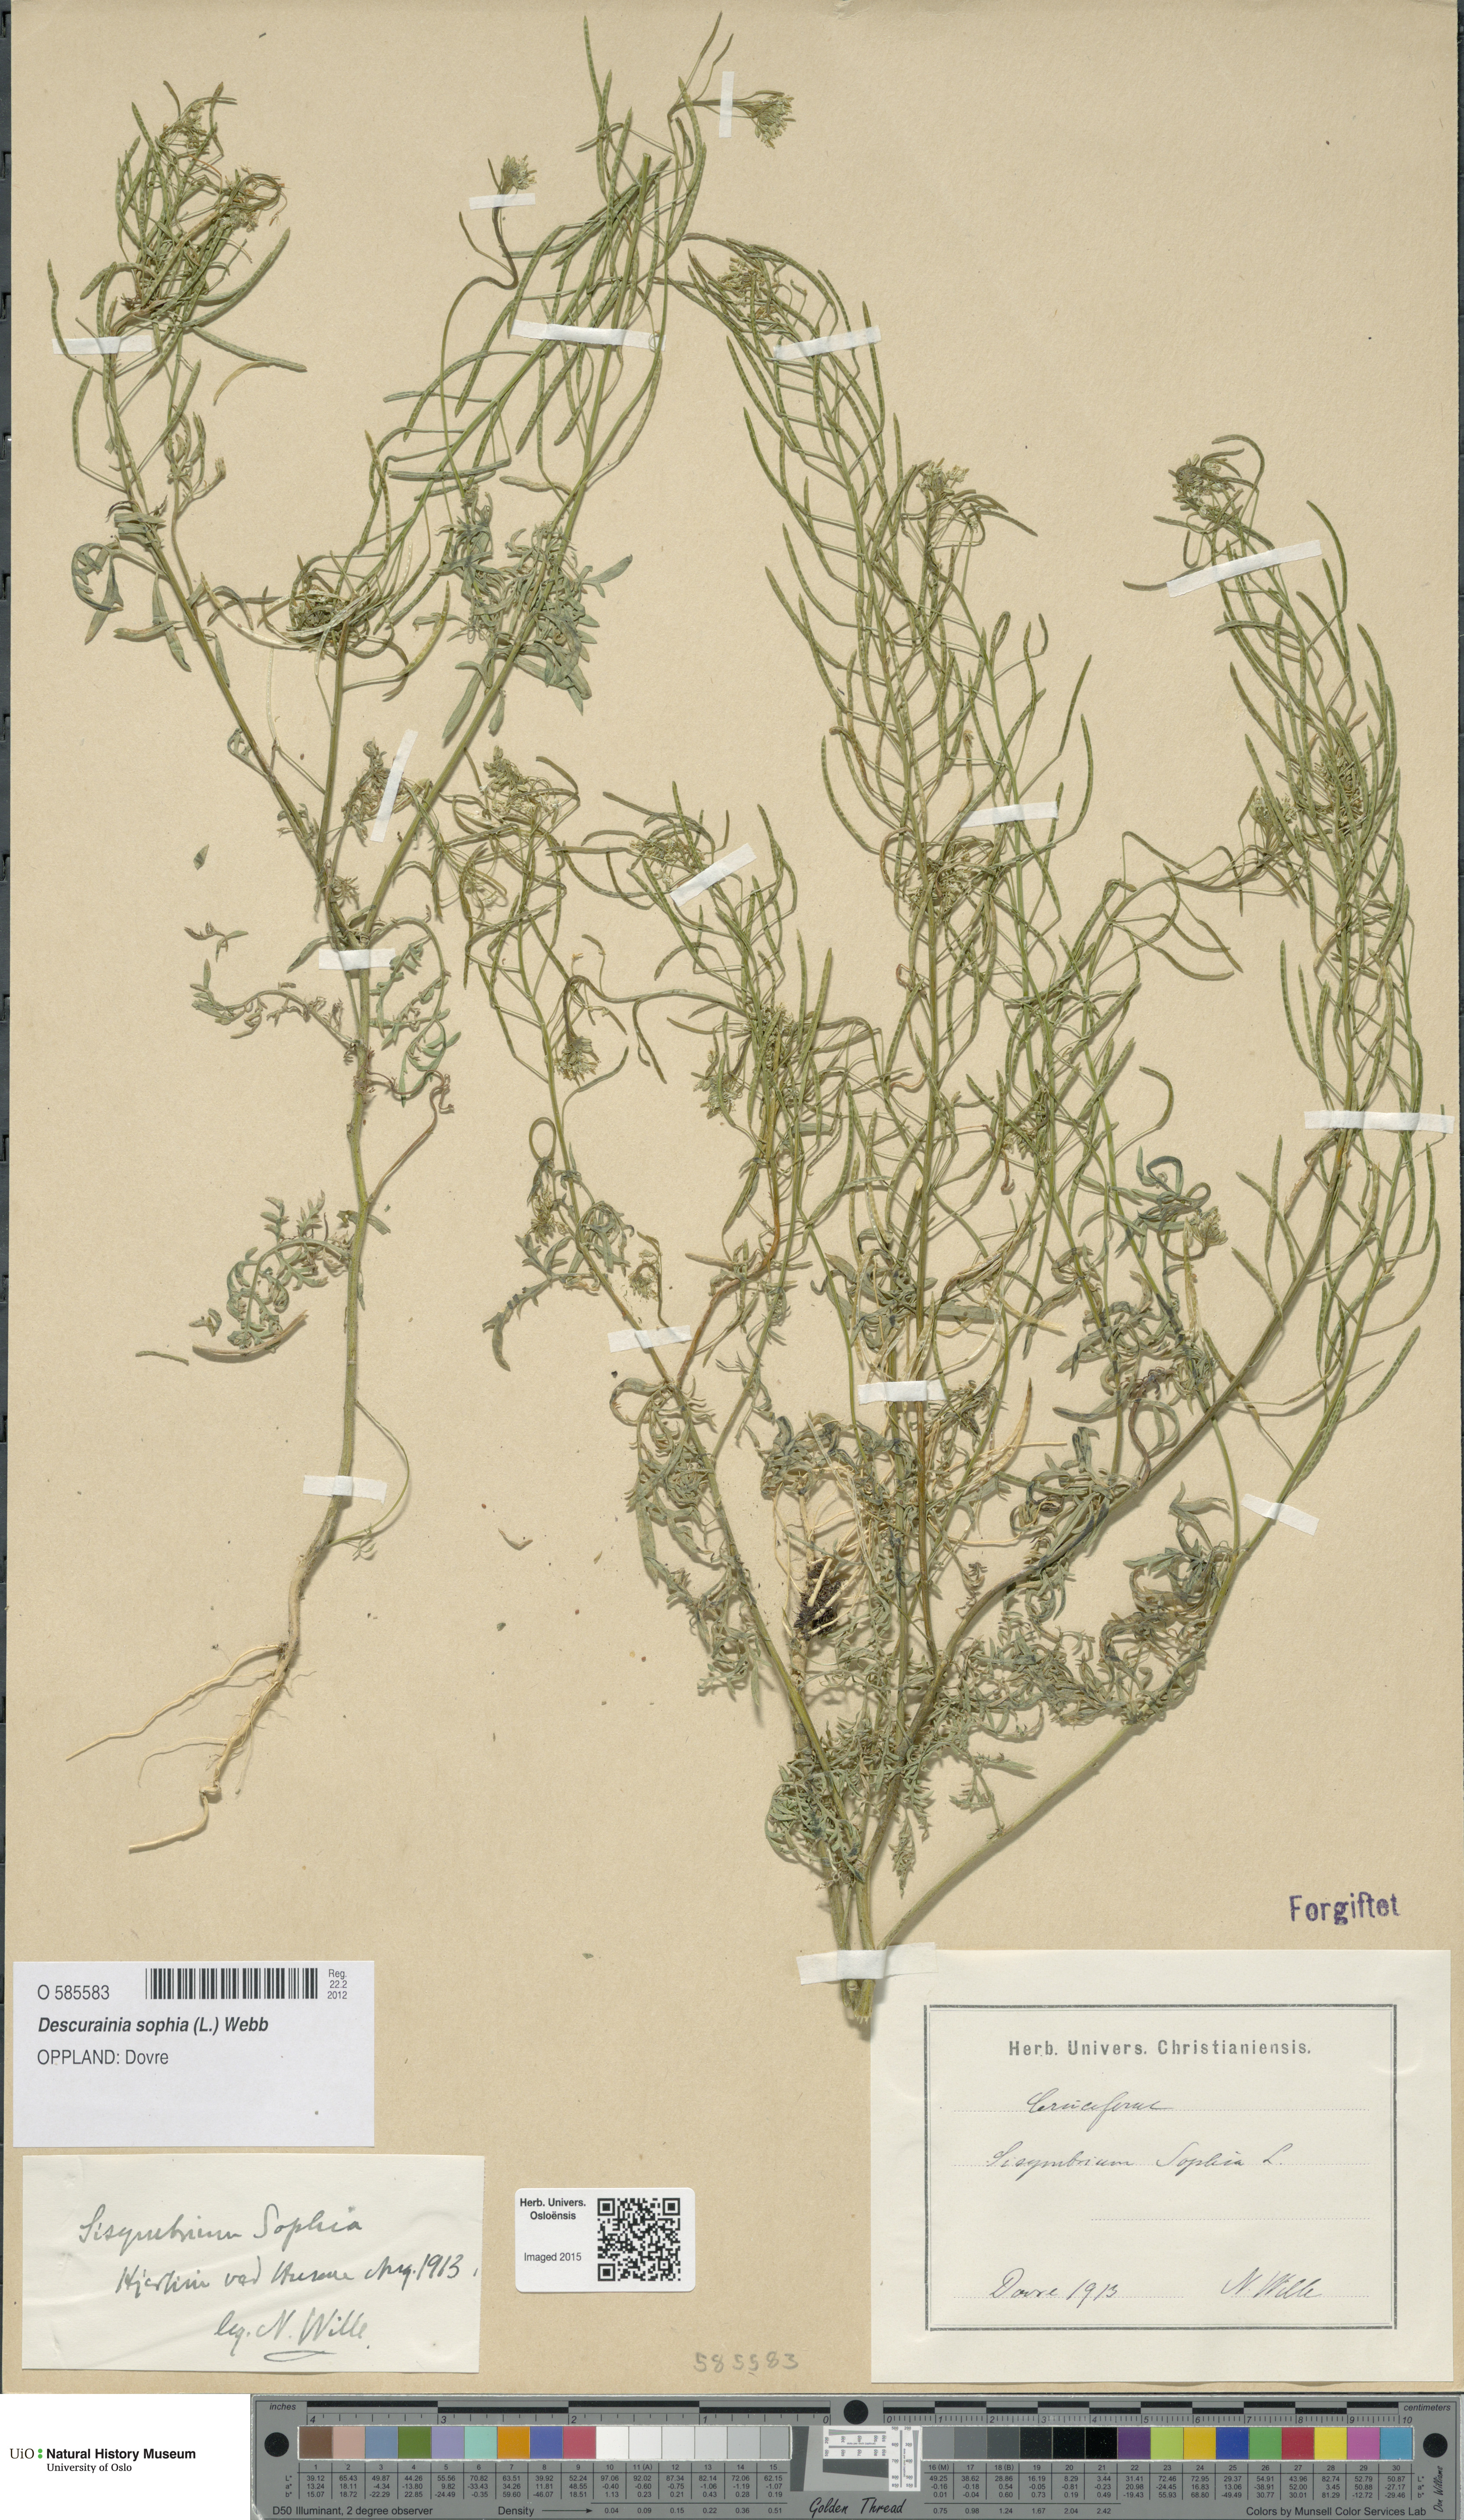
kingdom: Plantae
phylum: Tracheophyta
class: Magnoliopsida
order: Brassicales
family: Brassicaceae
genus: Descurainia
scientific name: Descurainia sophia
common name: Flixweed
